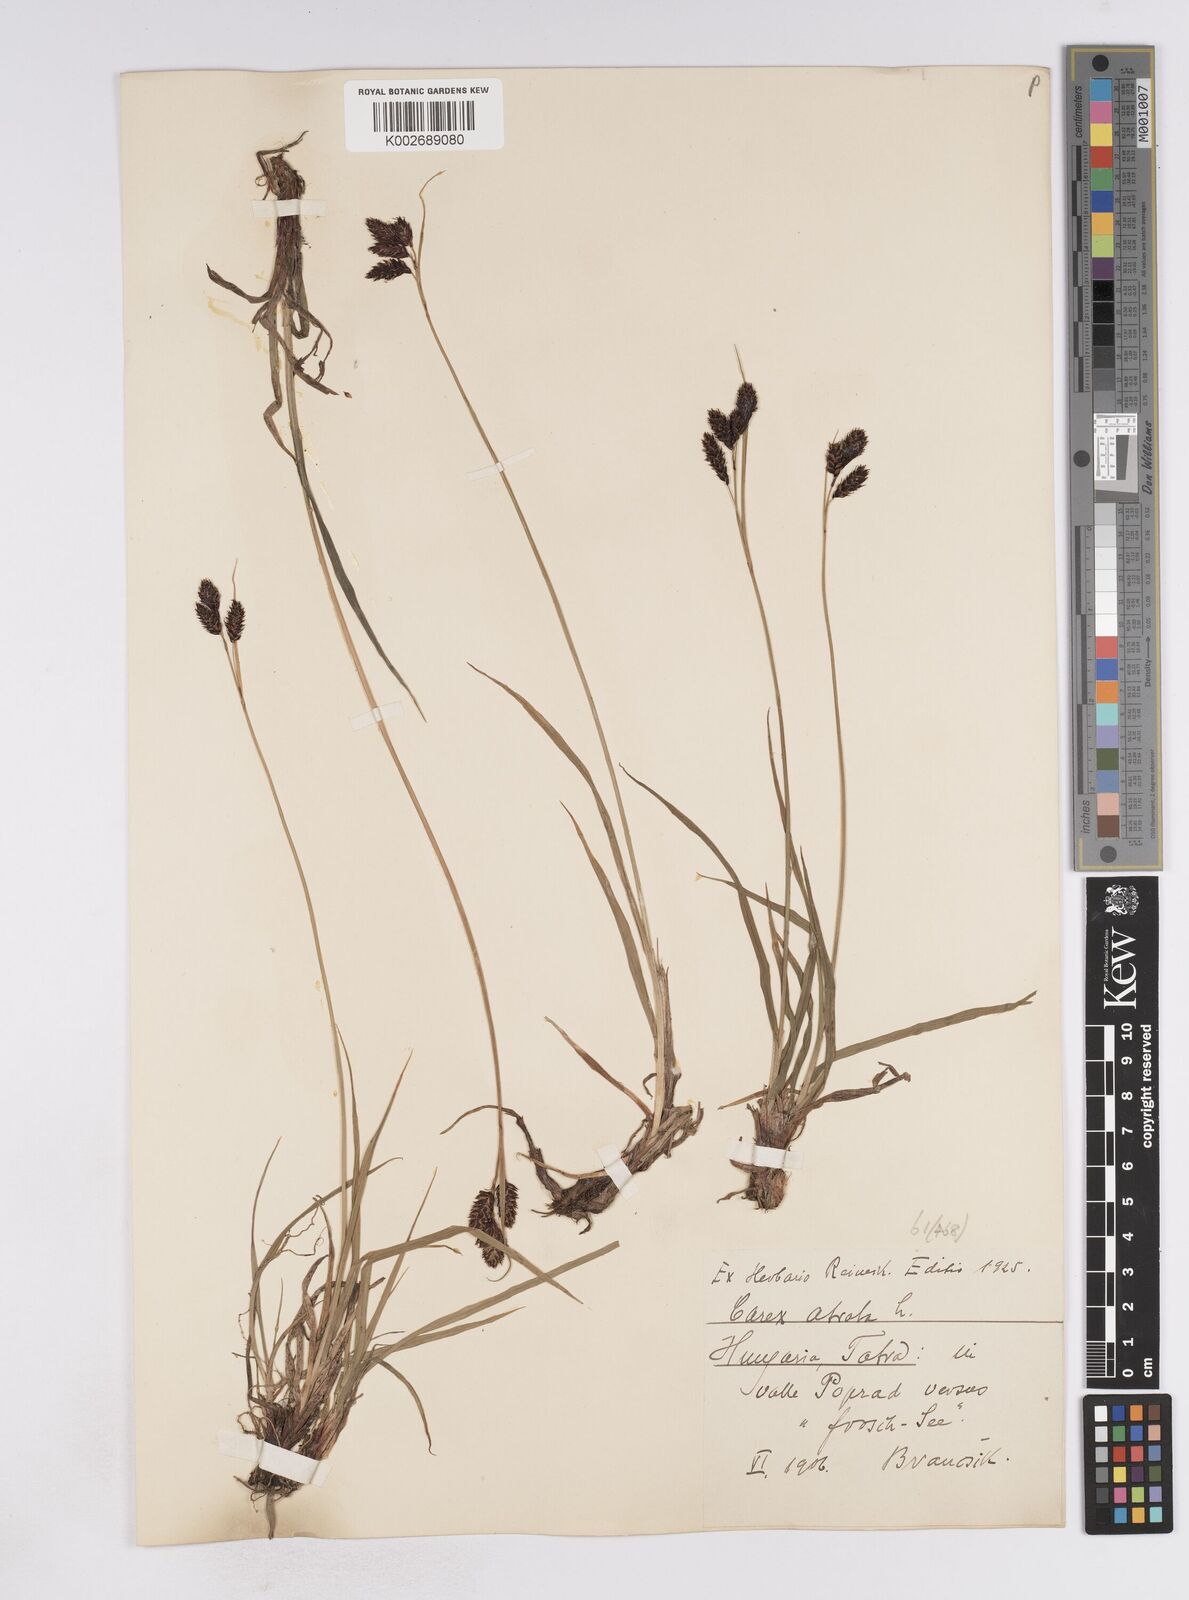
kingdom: Plantae
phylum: Tracheophyta
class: Liliopsida
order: Poales
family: Cyperaceae
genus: Carex
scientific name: Carex atrata
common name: Black alpine sedge
